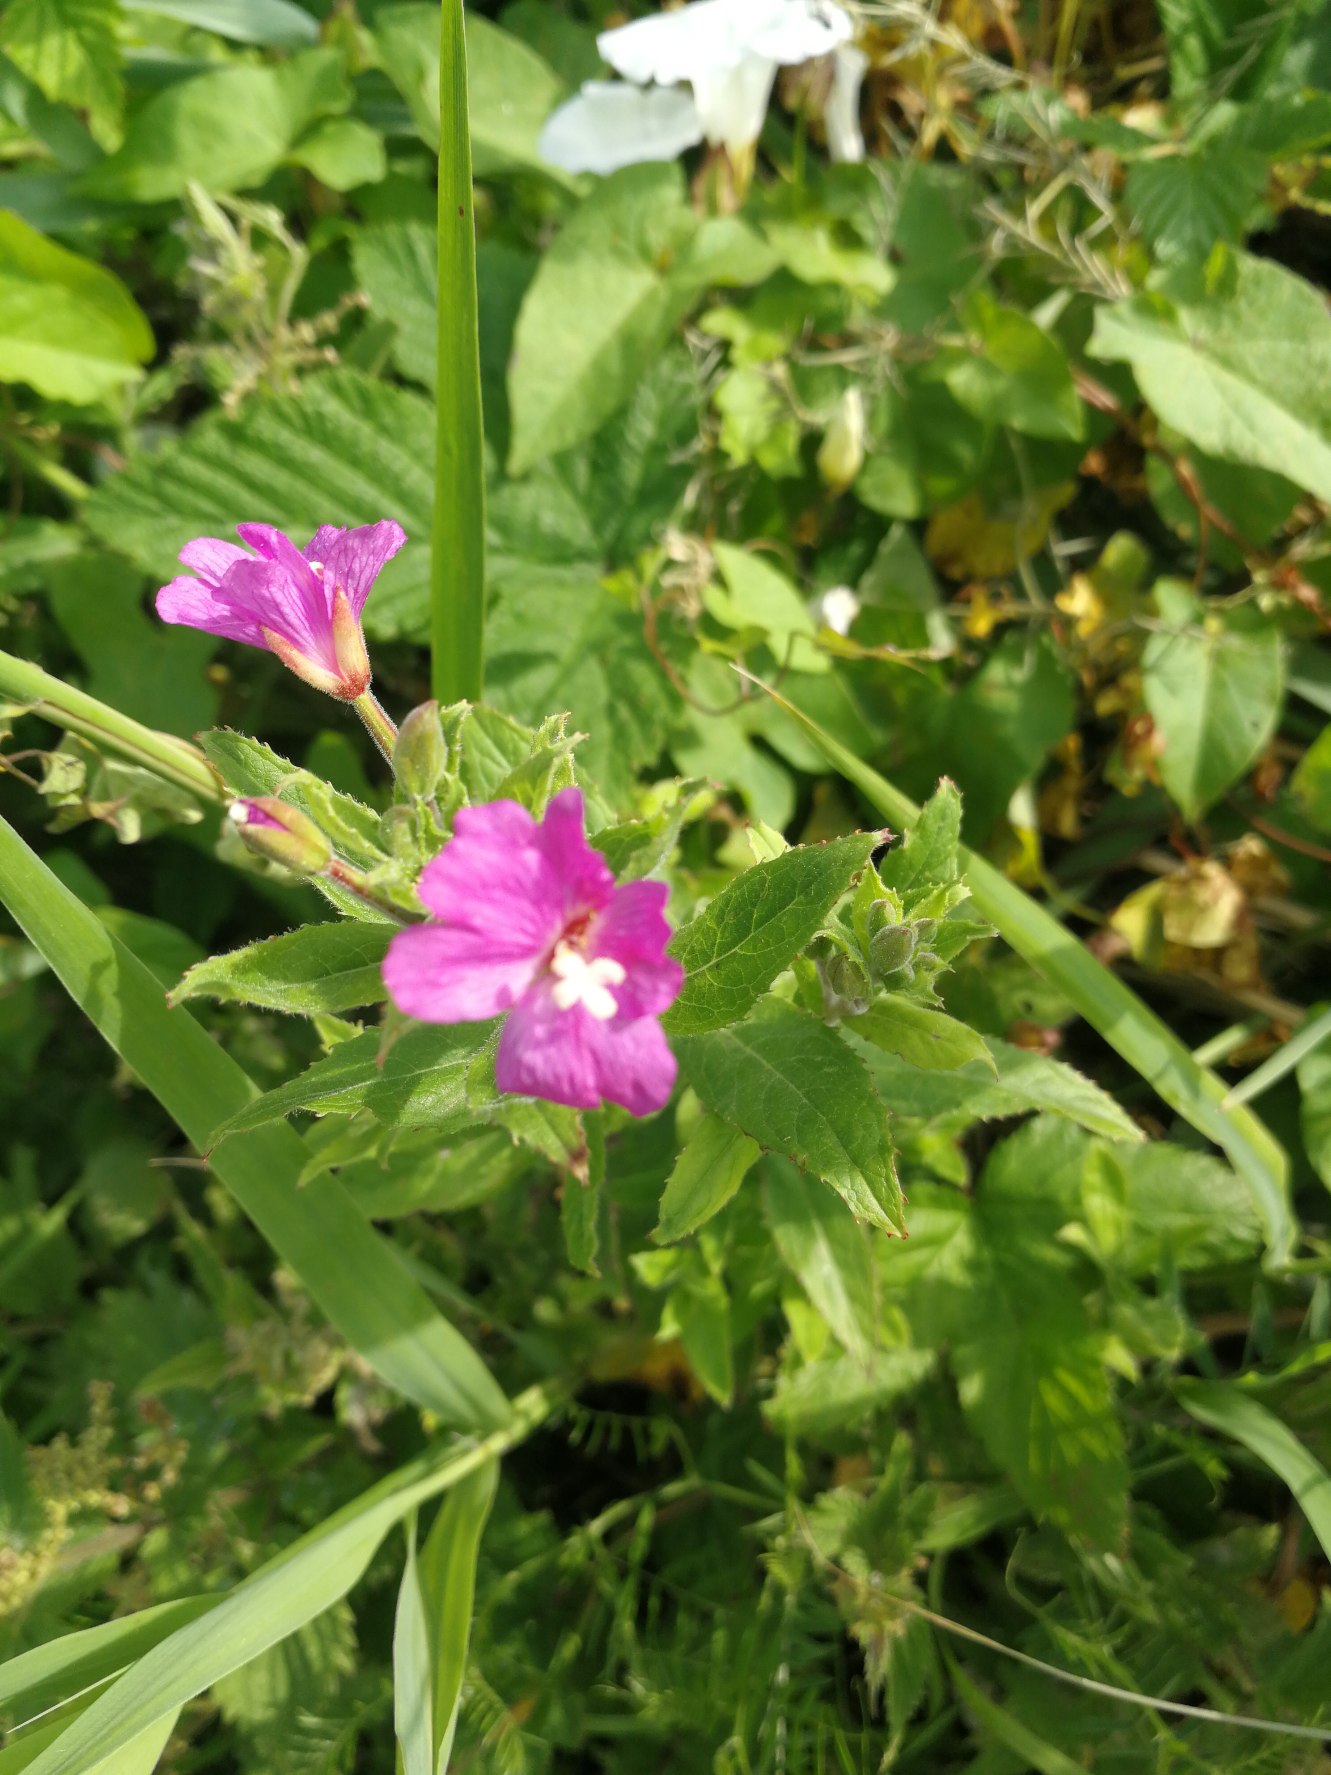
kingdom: Plantae
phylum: Tracheophyta
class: Magnoliopsida
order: Myrtales
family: Onagraceae
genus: Epilobium
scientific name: Epilobium hirsutum
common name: Lådden dueurt
